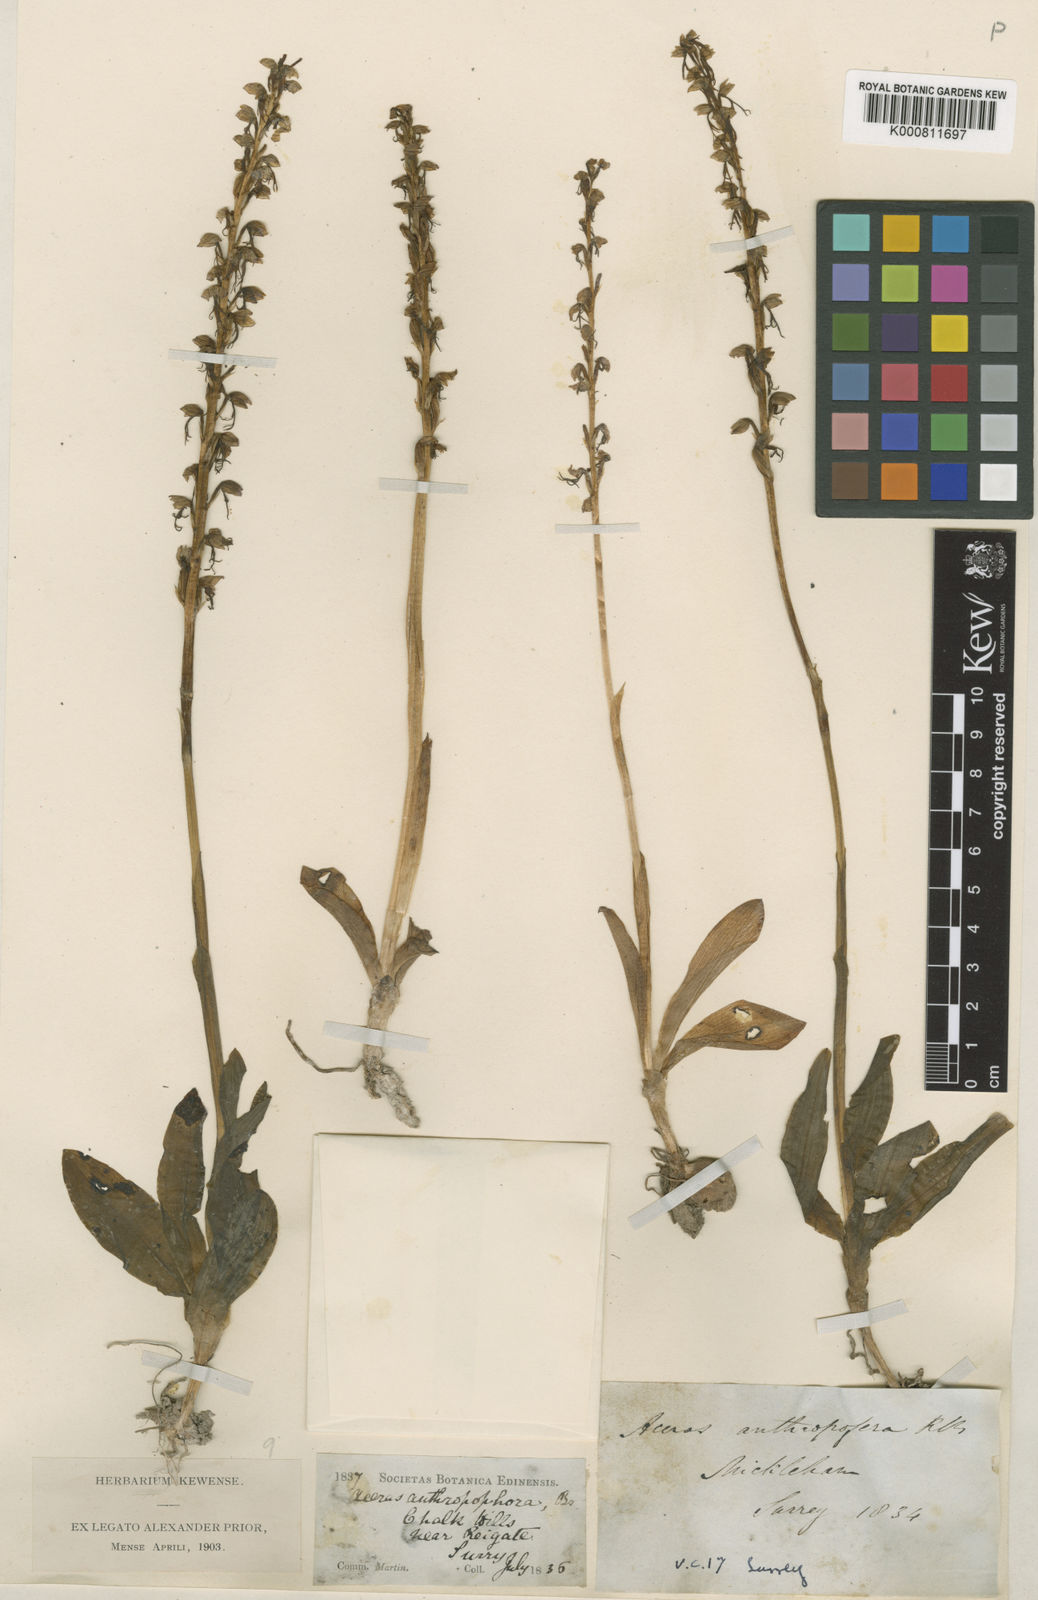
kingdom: Plantae
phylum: Tracheophyta
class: Liliopsida
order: Asparagales
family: Orchidaceae
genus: Orchis
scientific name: Orchis
